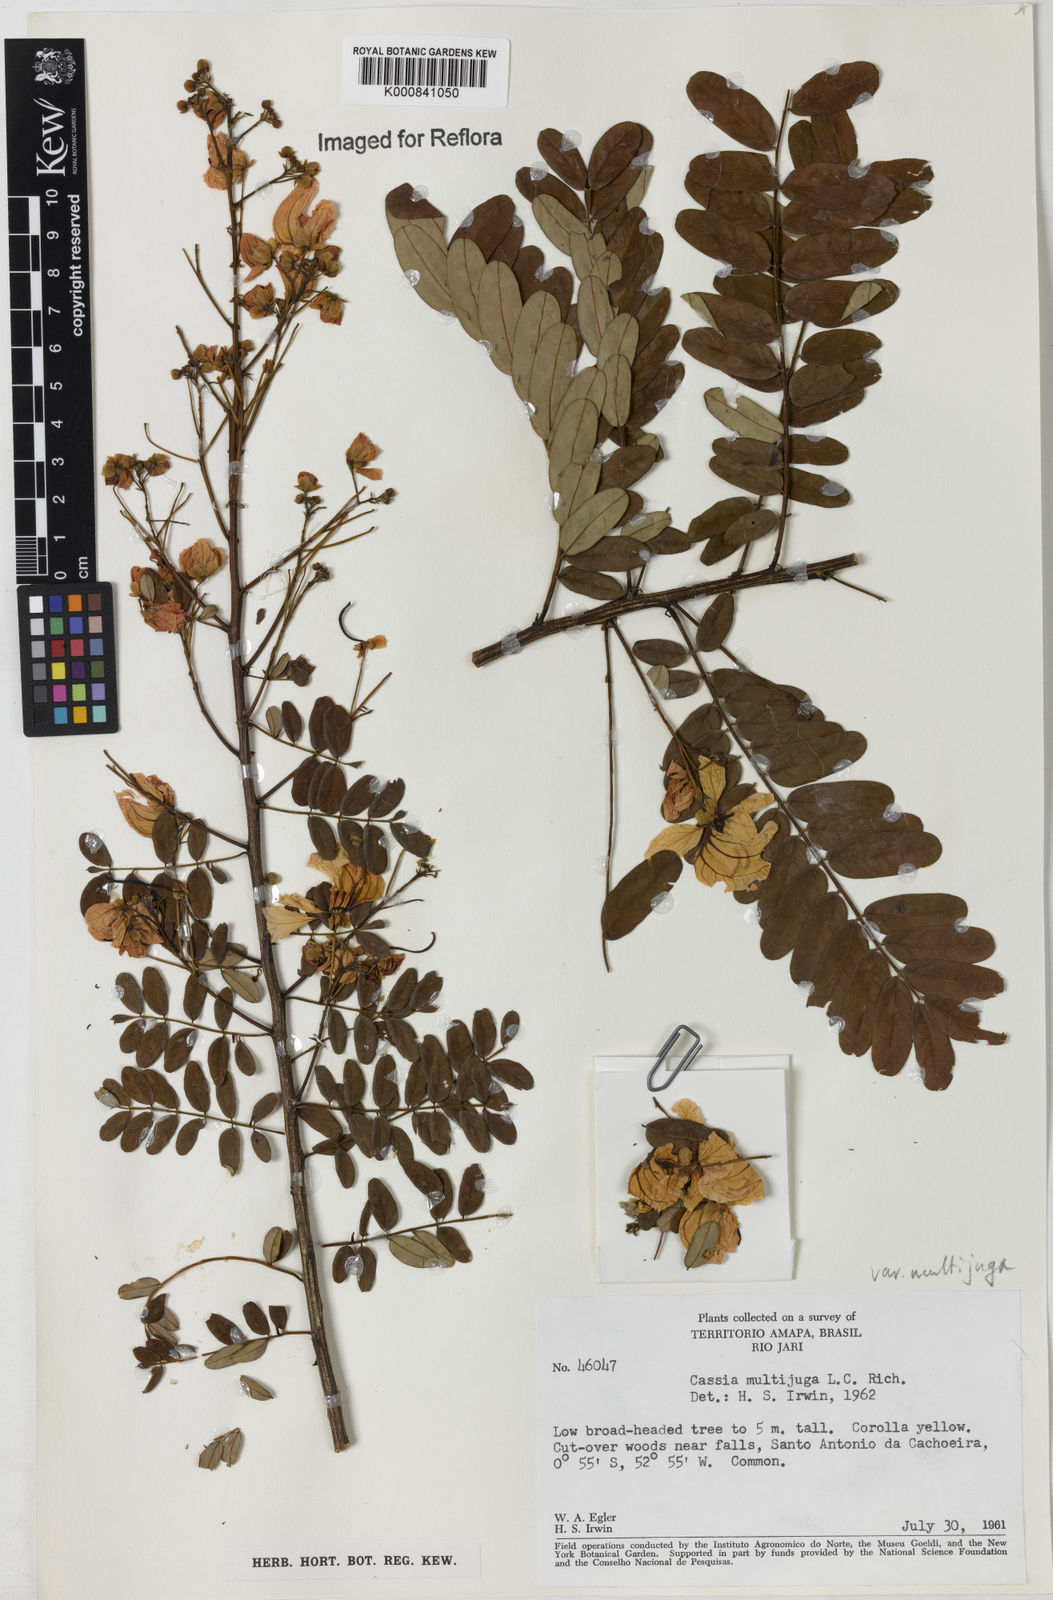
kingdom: Plantae
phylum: Tracheophyta
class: Magnoliopsida
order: Fabales
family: Fabaceae
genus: Senna
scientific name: Senna multijuga
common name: False sicklepod
